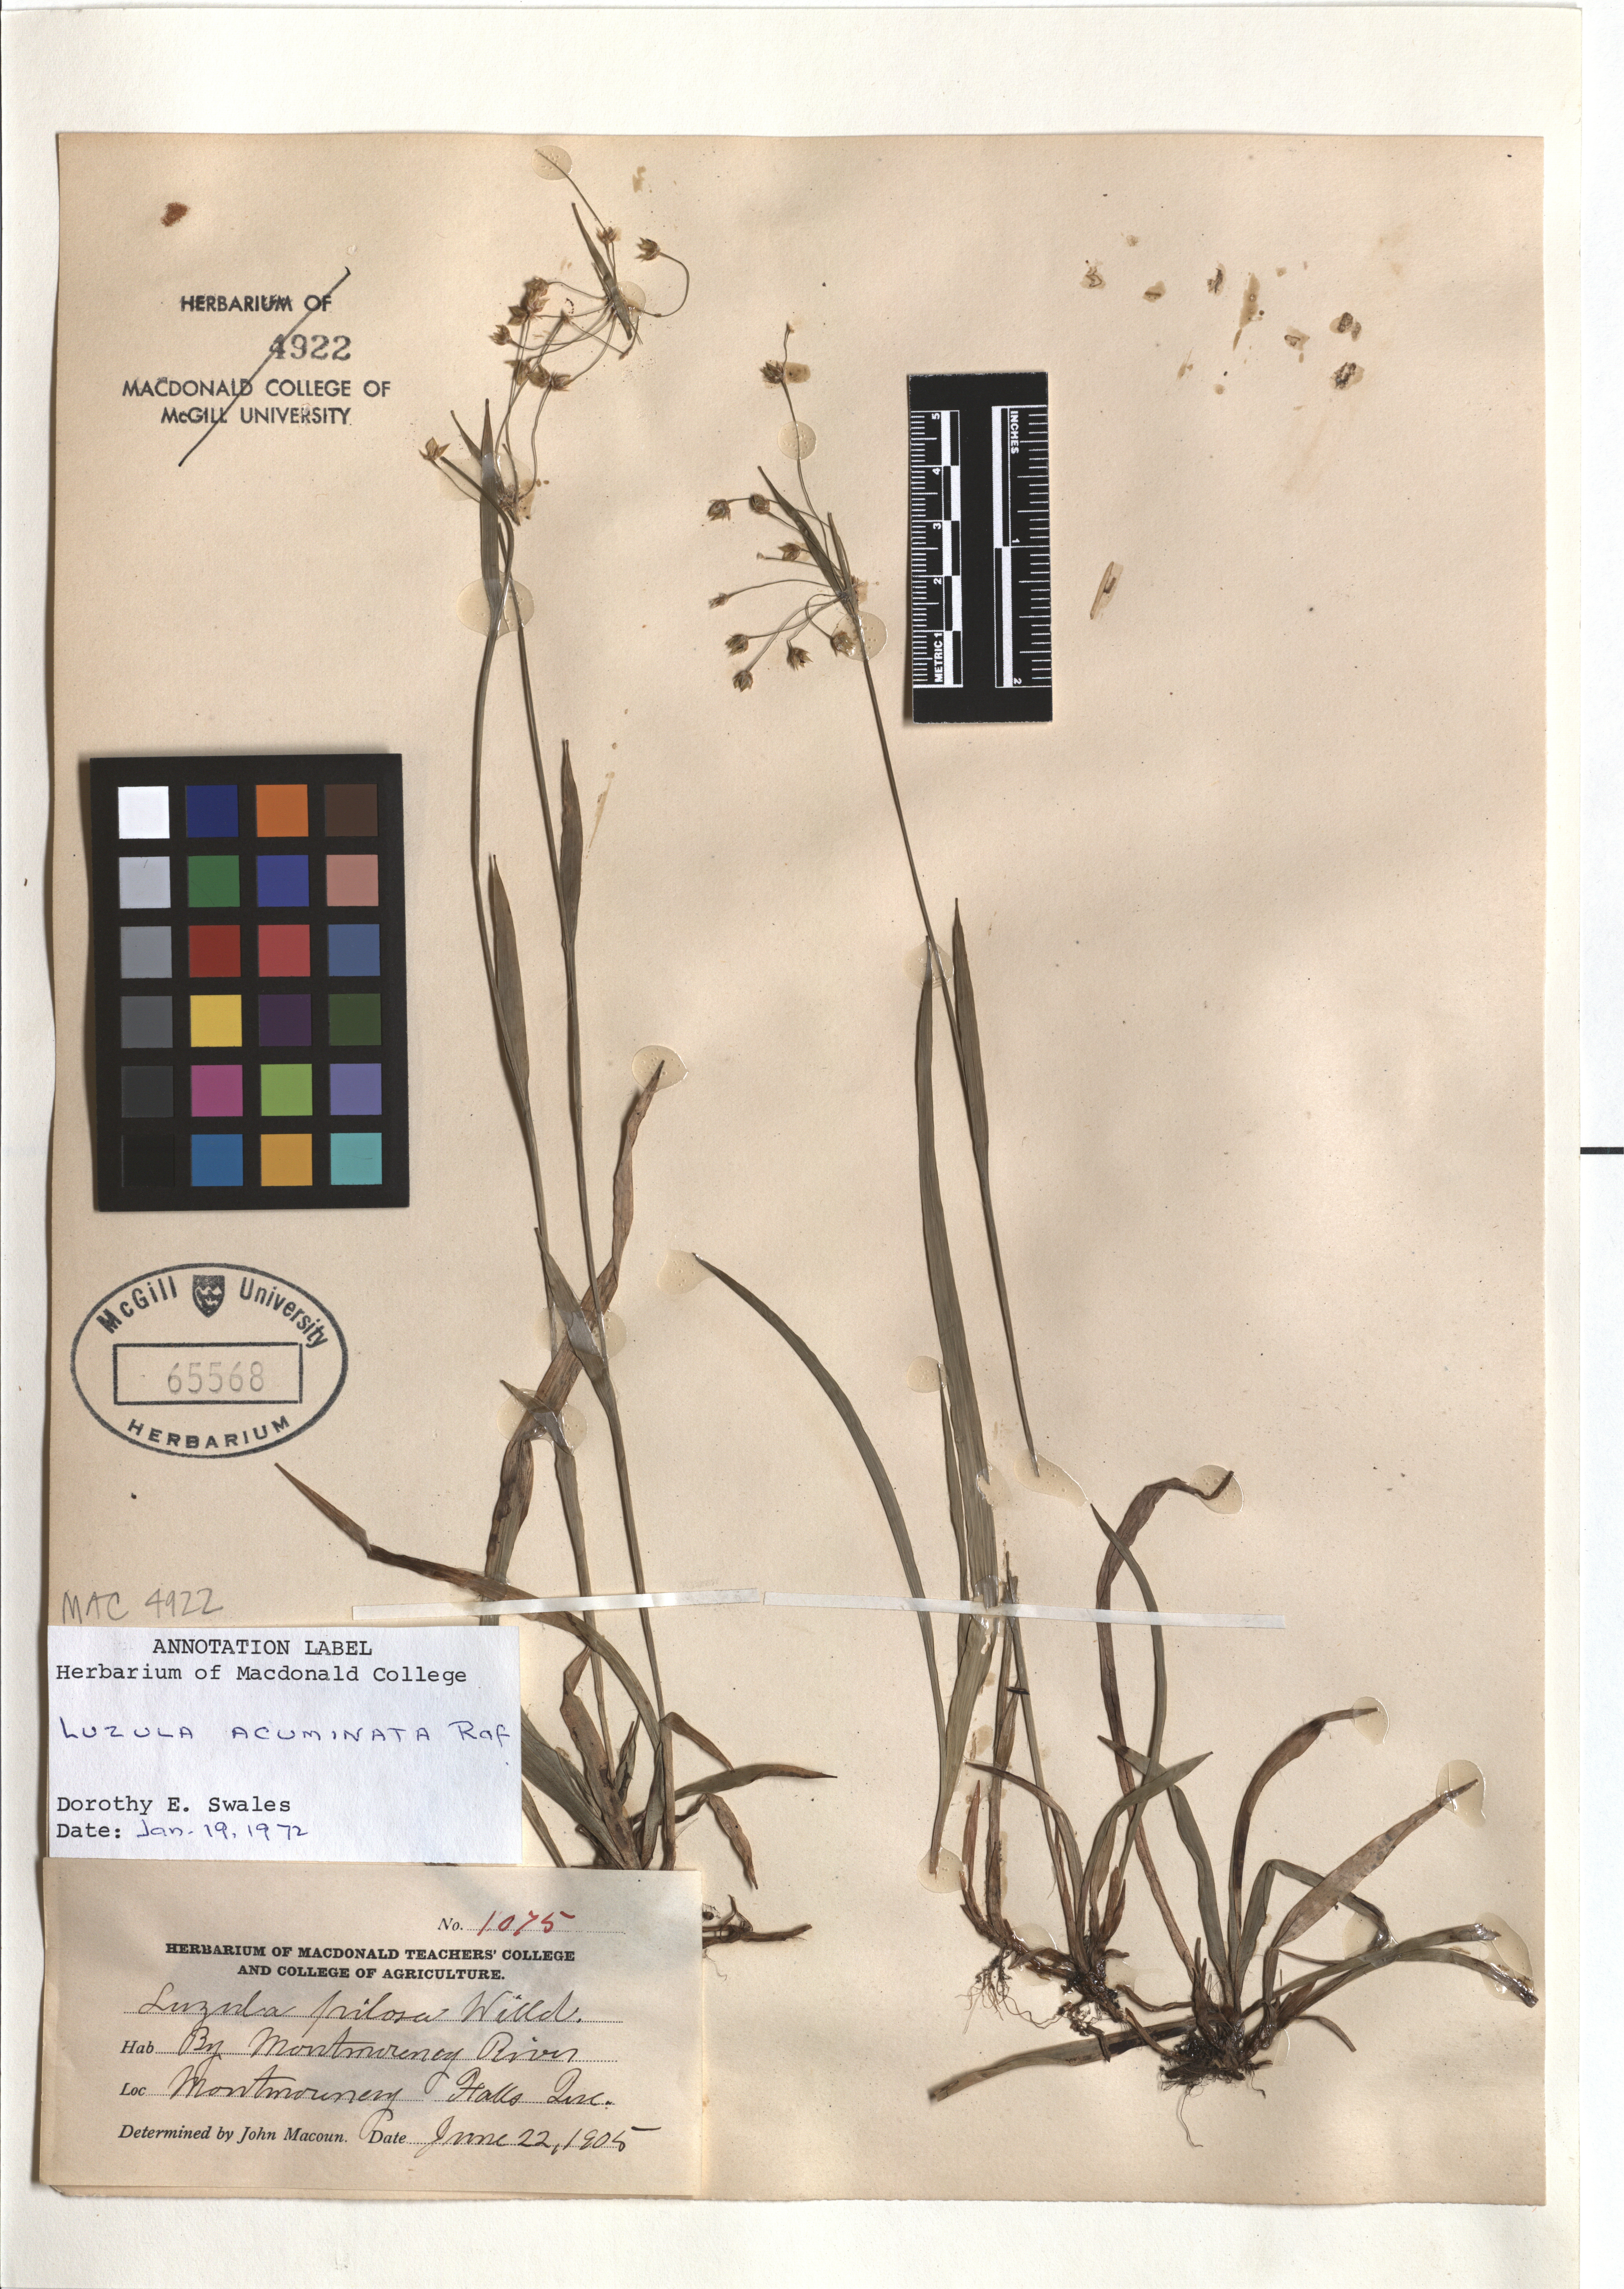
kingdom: Plantae
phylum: Tracheophyta
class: Liliopsida
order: Poales
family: Juncaceae
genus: Luzula
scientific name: Luzula acuminata
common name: Hairy woodrush
